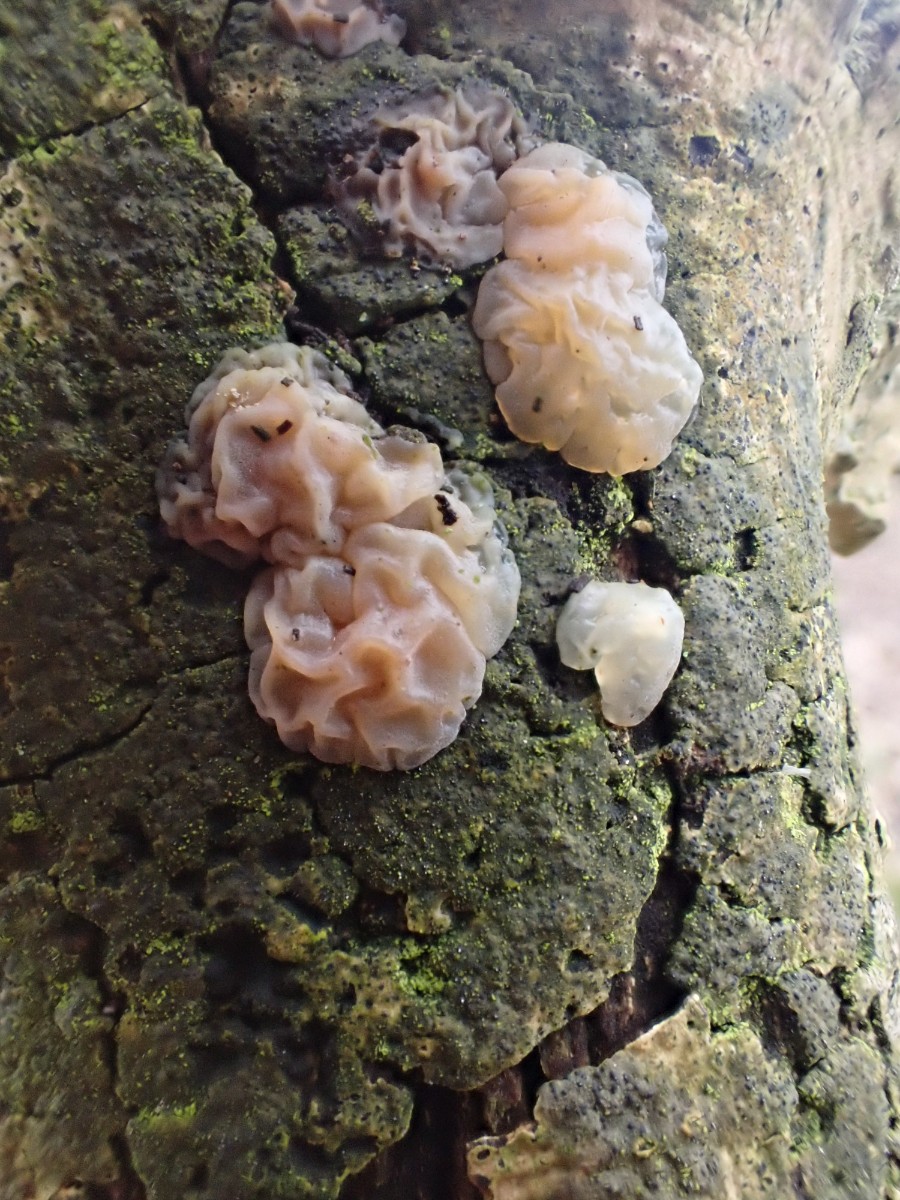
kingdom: Fungi
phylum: Basidiomycota
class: Agaricomycetes
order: Auriculariales
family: Auriculariaceae
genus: Exidia
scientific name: Exidia thuretiana
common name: hvidlig bævretop
